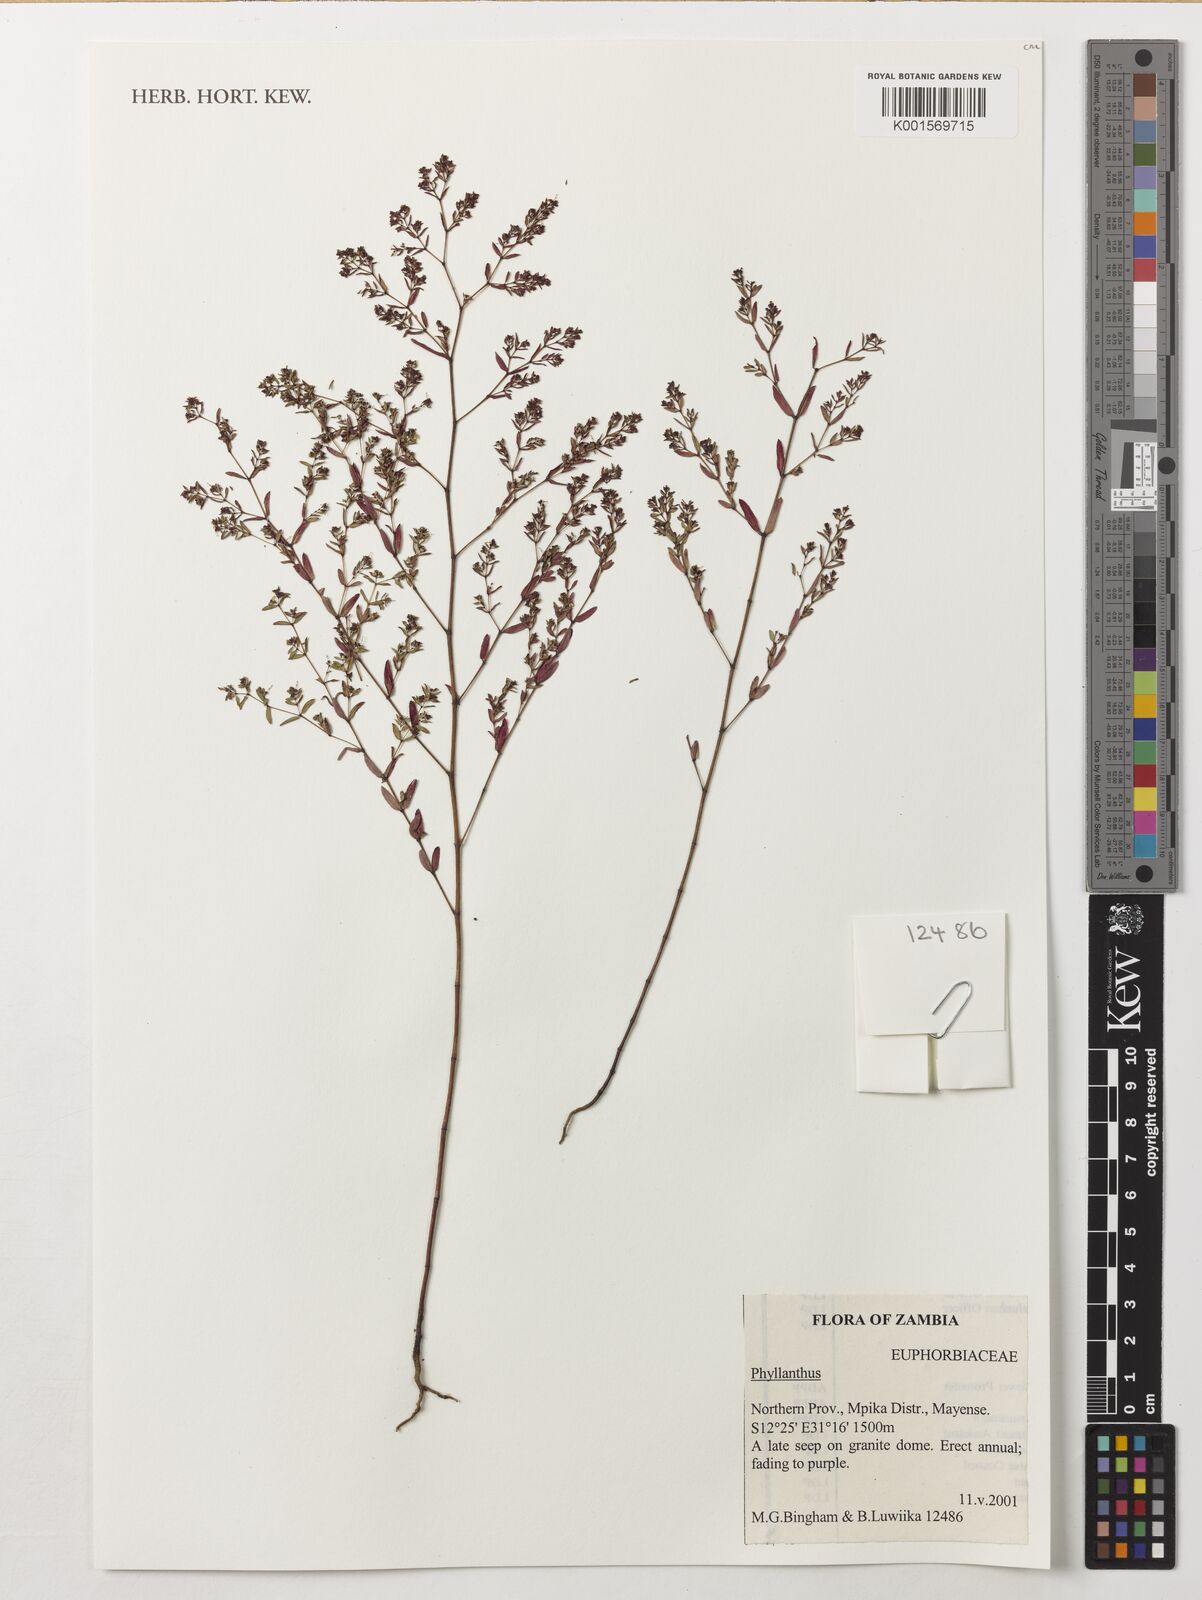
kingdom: Plantae
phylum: Tracheophyta
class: Magnoliopsida
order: Malpighiales
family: Phyllanthaceae
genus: Phyllanthus
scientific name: Phyllanthus
